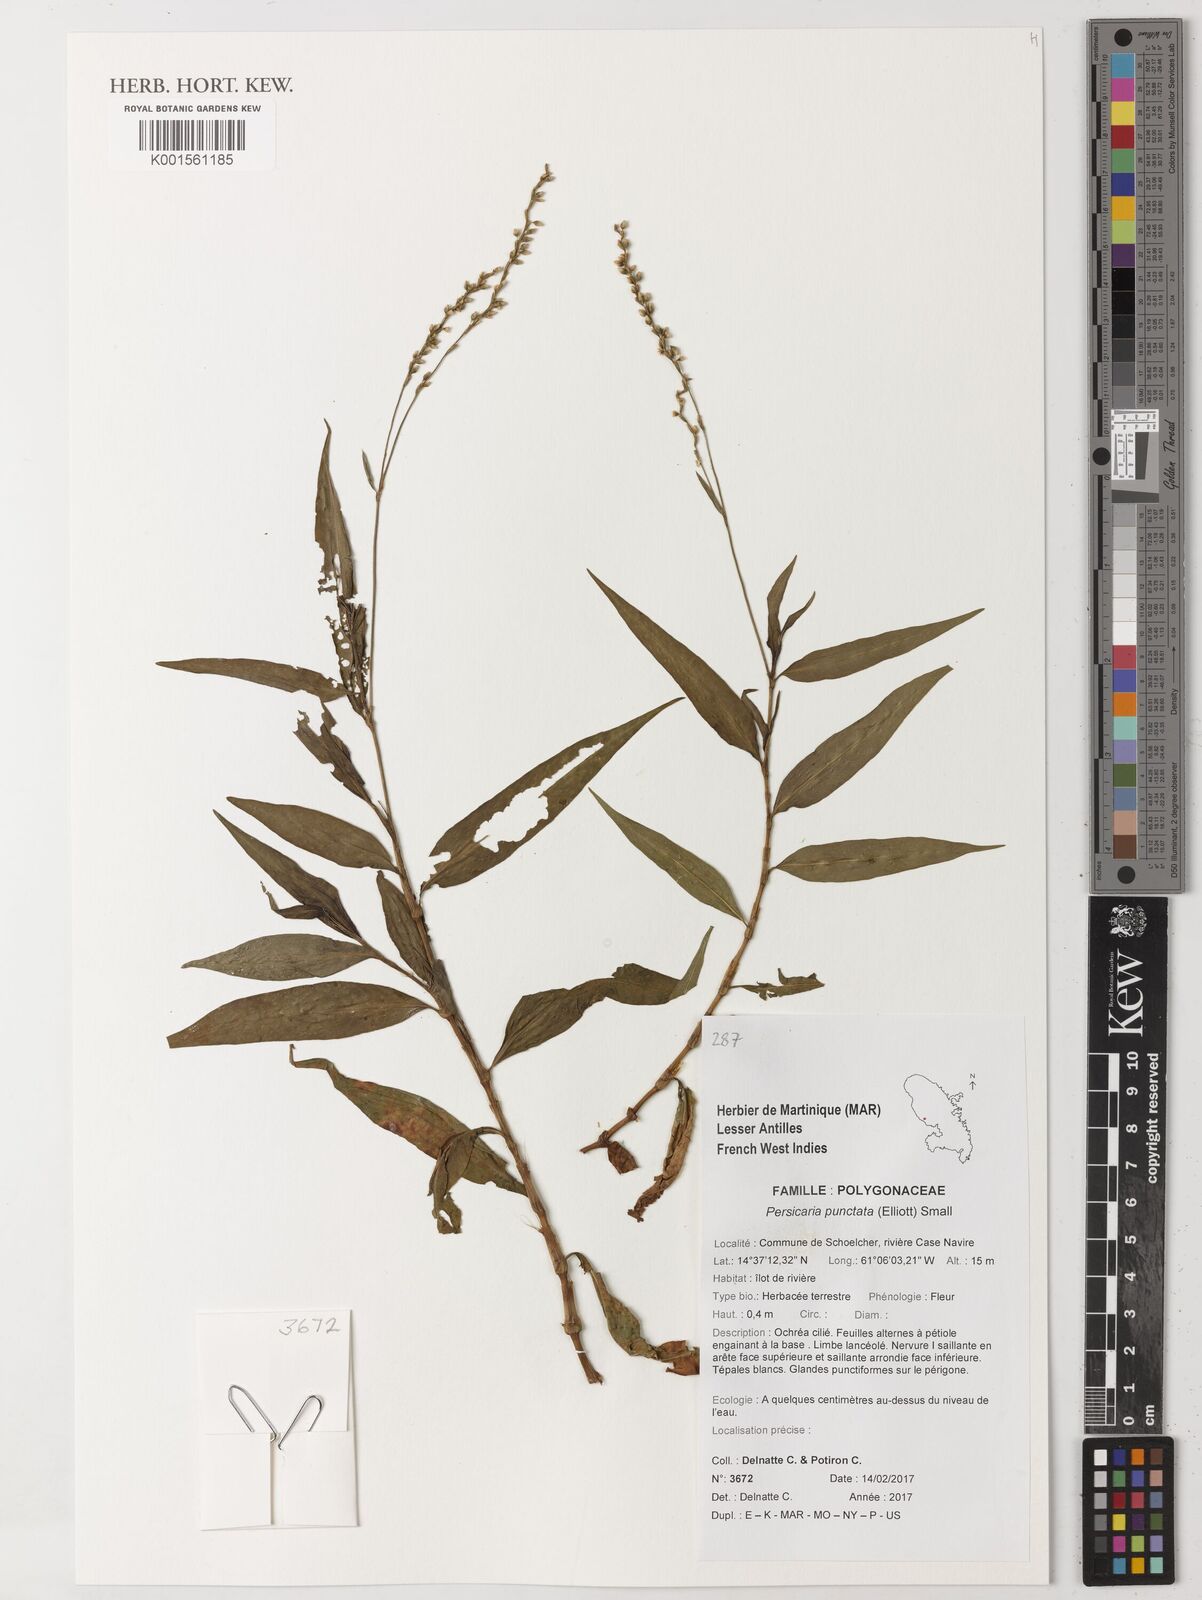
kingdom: Plantae
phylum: Tracheophyta
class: Magnoliopsida
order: Caryophyllales
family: Polygonaceae
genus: Persicaria
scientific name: Persicaria punctata
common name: Dotted smartweed
